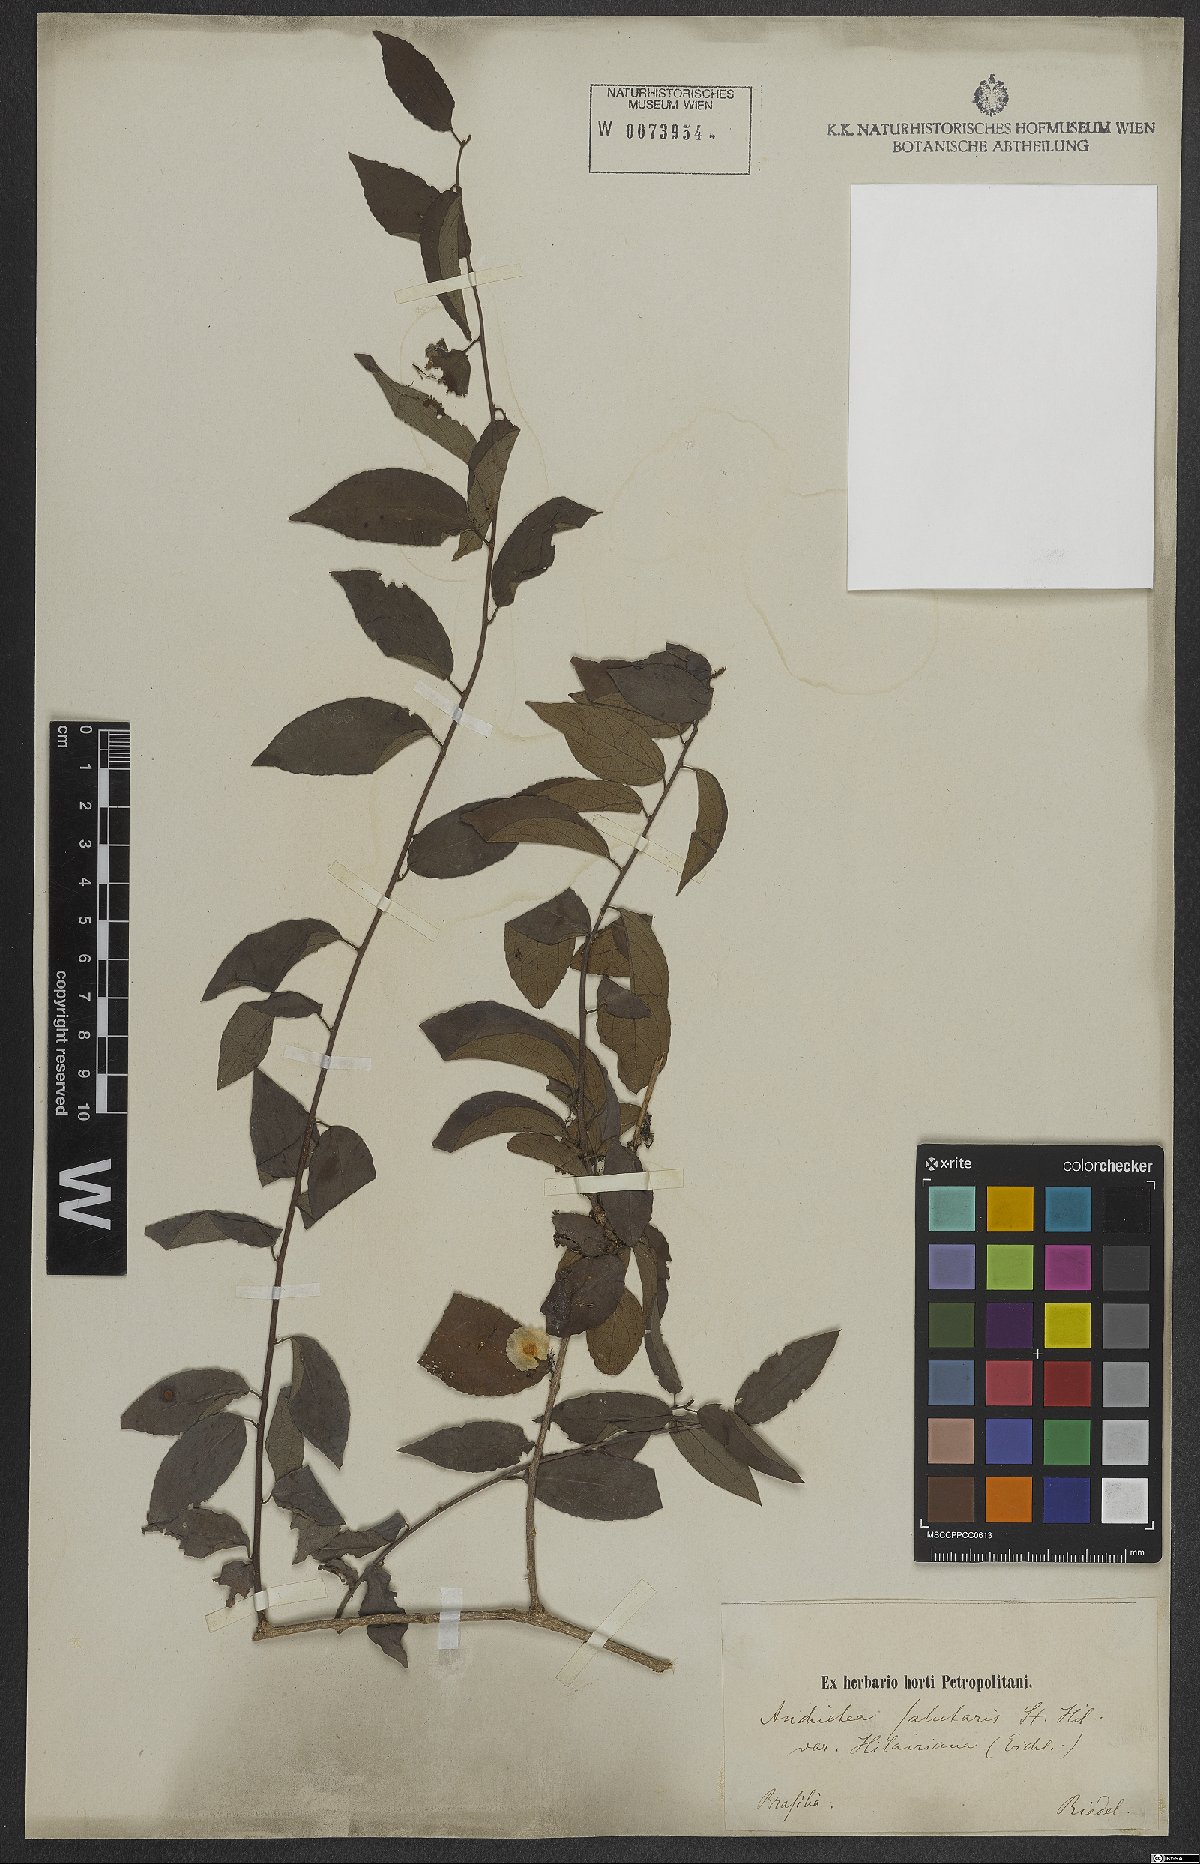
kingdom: Plantae
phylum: Tracheophyta
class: Magnoliopsida
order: Malpighiales
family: Violaceae
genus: Anchietea
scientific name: Anchietea pyrifolia
